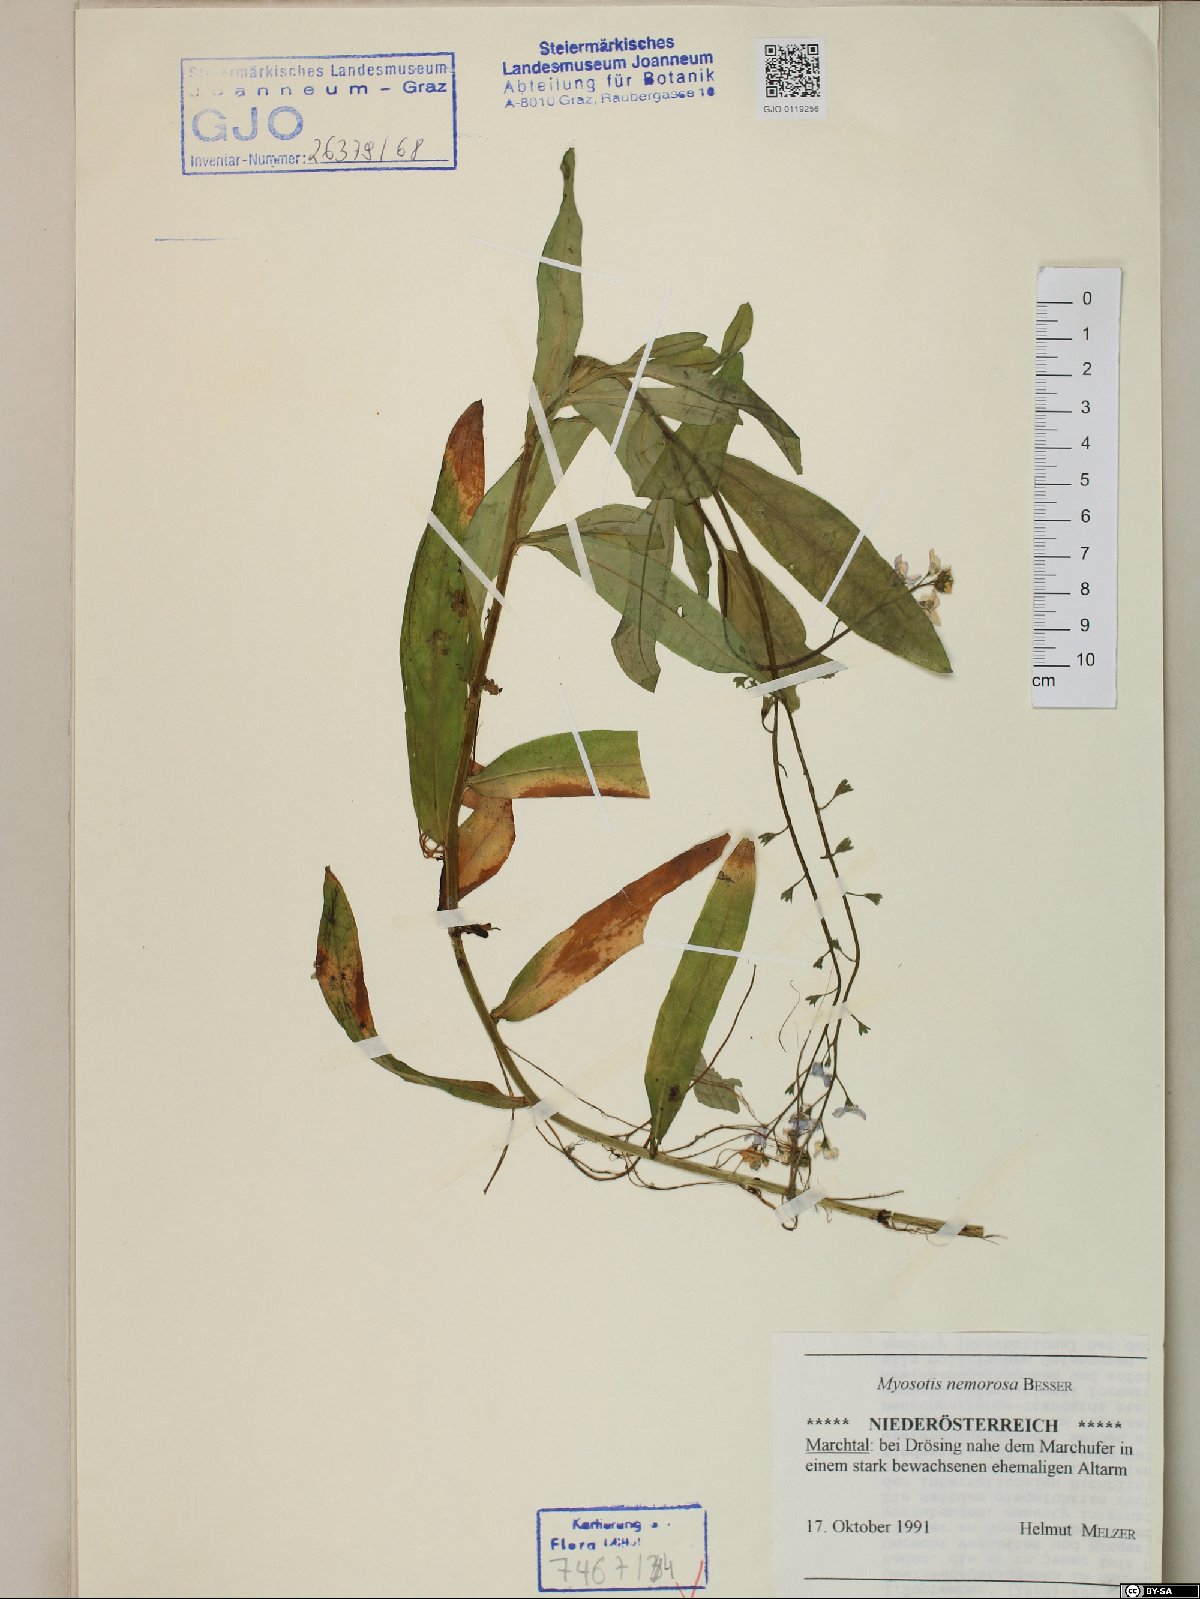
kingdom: Plantae
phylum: Tracheophyta
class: Magnoliopsida
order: Boraginales
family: Boraginaceae
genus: Myosotis
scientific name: Myosotis nemorosa
